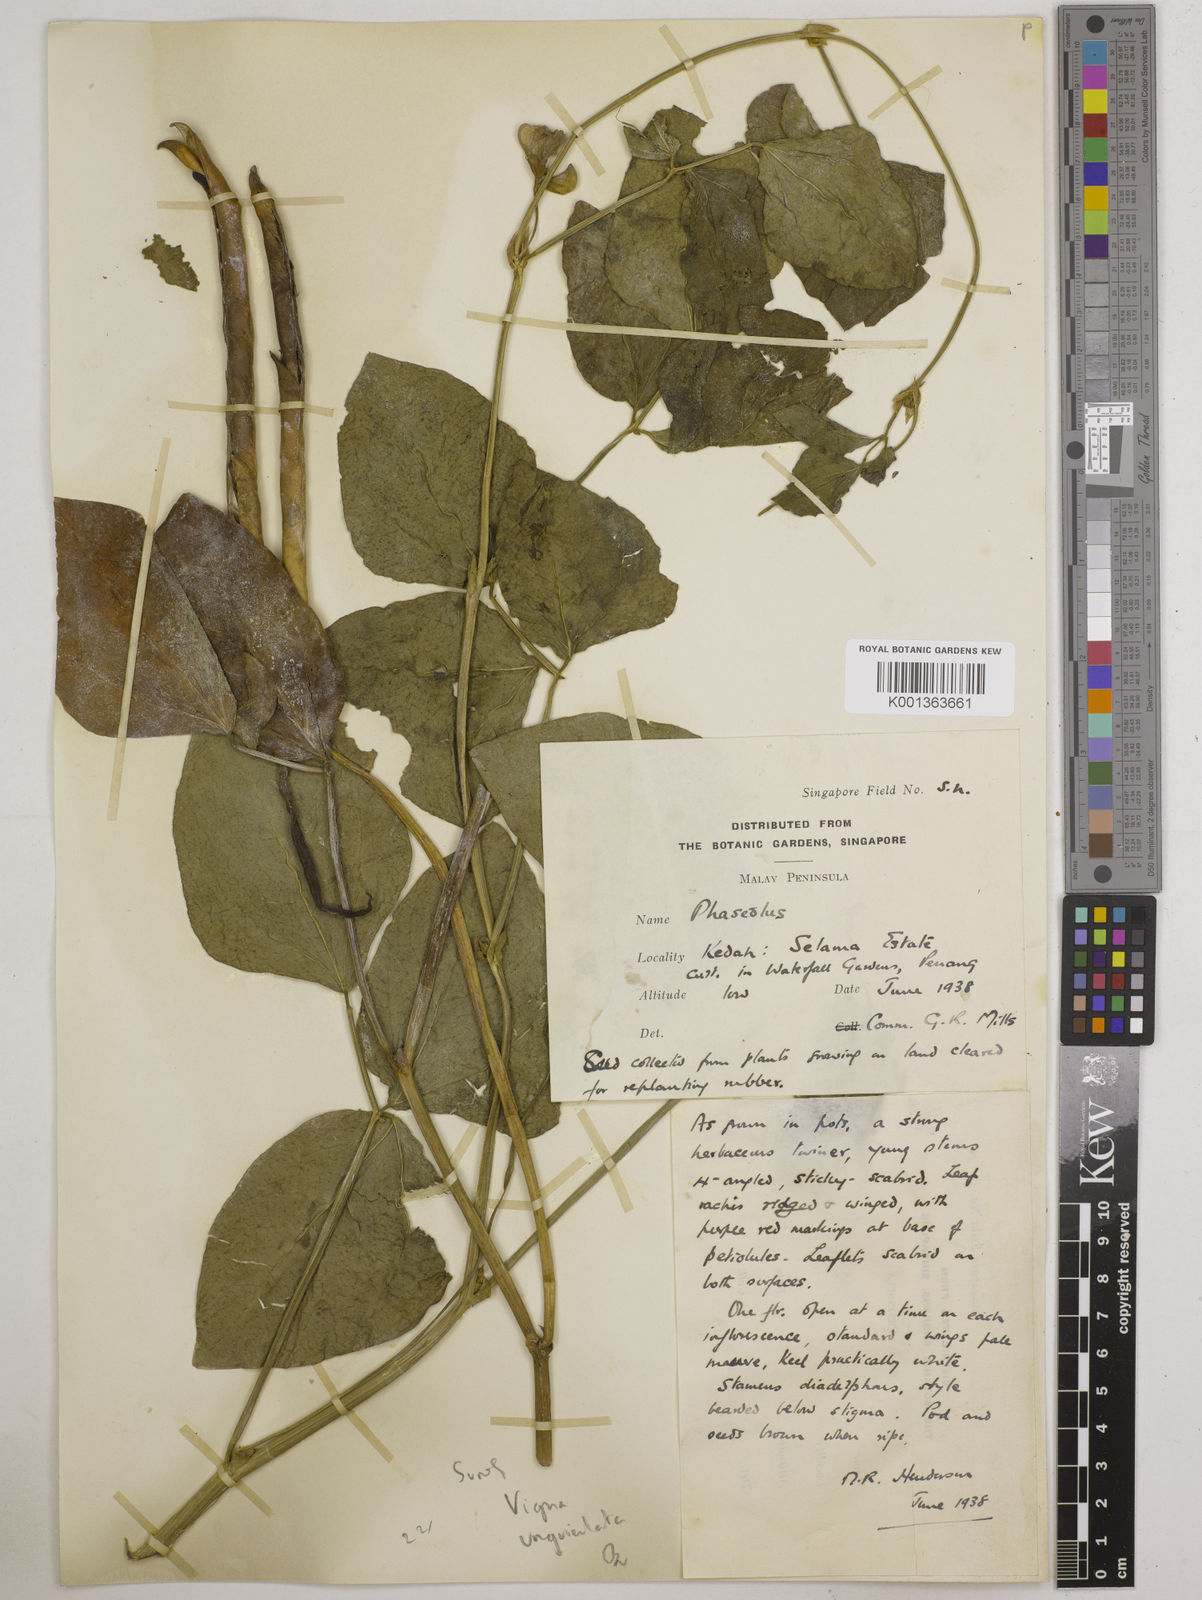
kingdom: Plantae
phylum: Tracheophyta
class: Magnoliopsida
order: Fabales
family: Fabaceae
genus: Vigna
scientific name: Vigna unguiculata
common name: Cowpea
